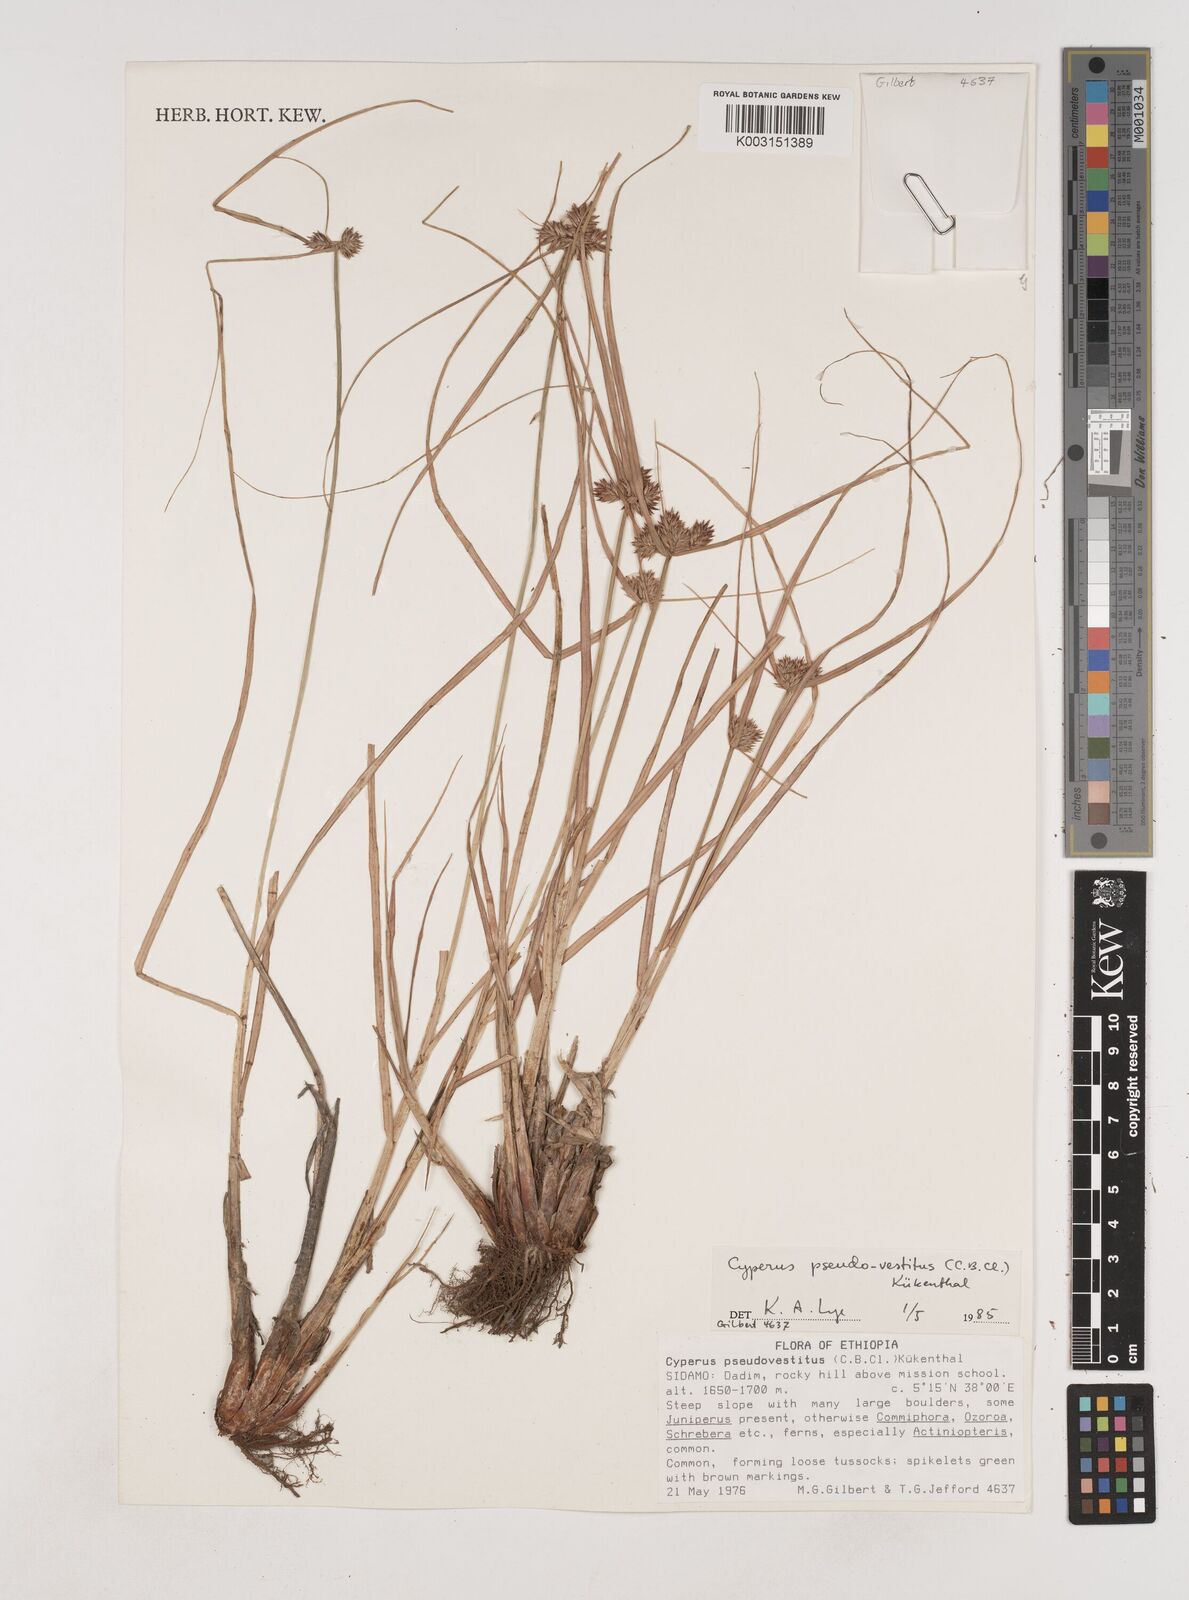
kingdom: Plantae
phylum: Tracheophyta
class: Liliopsida
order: Poales
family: Cyperaceae
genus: Cyperus
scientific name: Cyperus pseudovestitus
